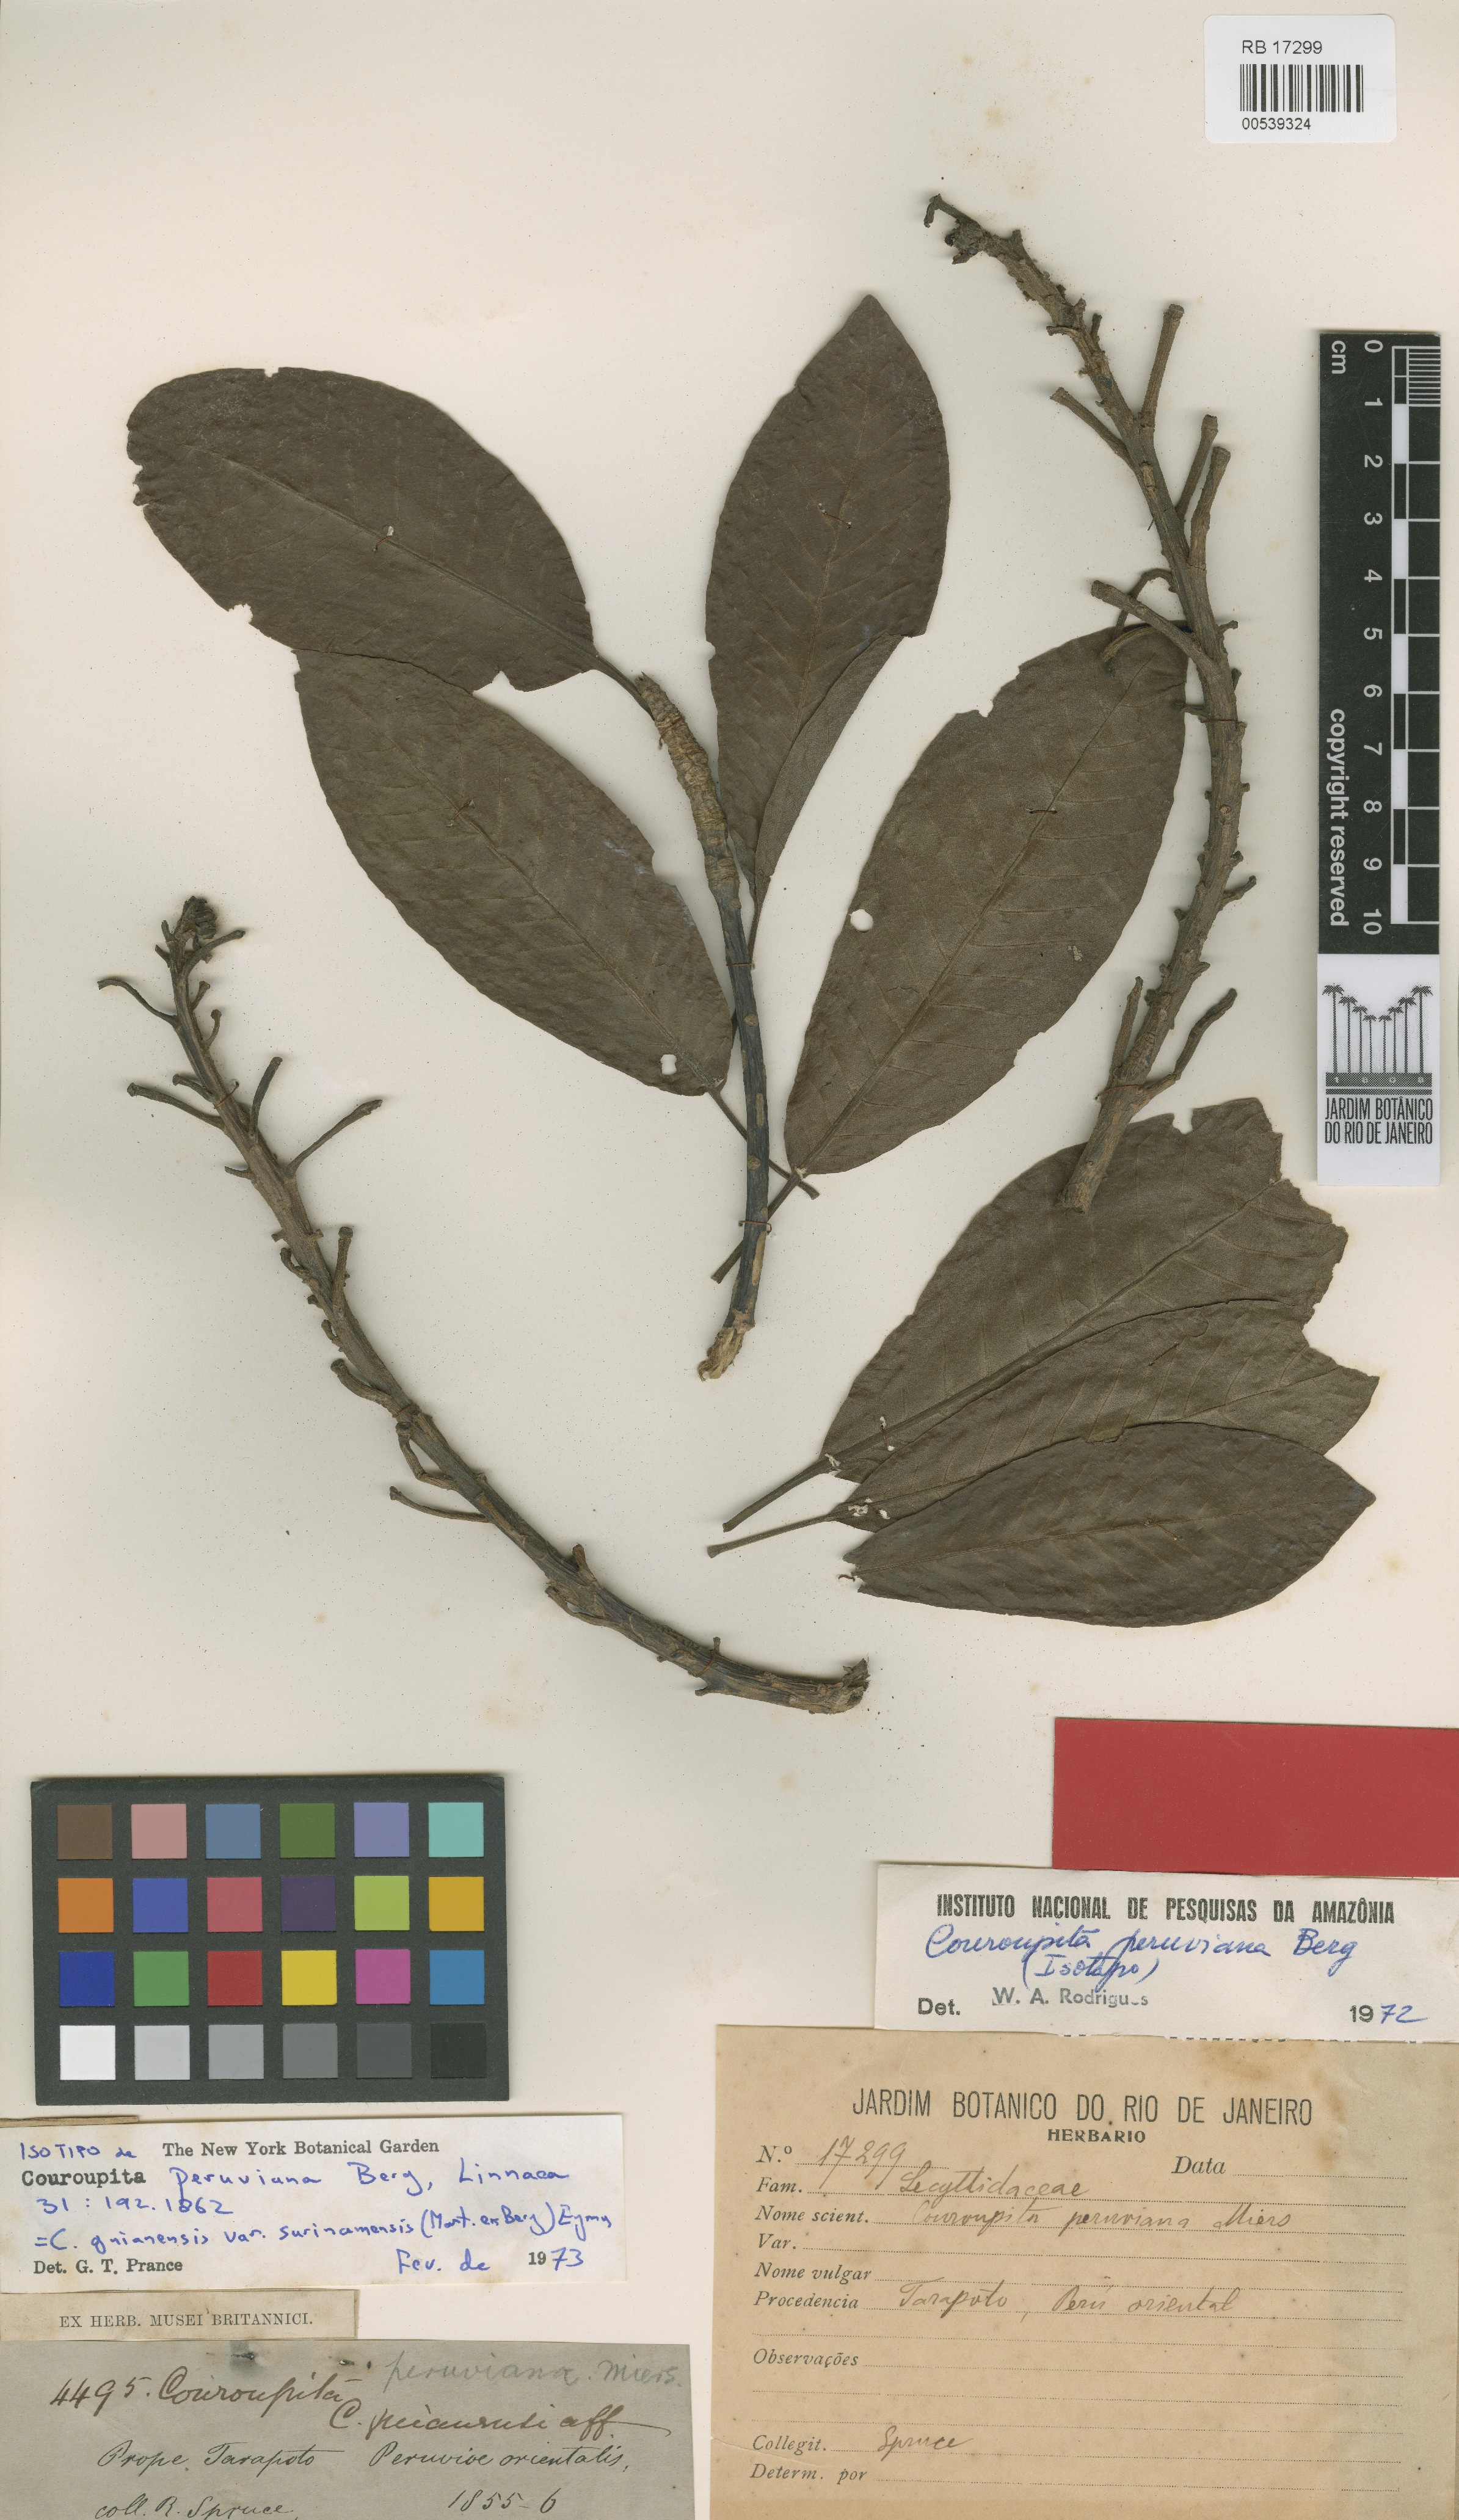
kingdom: Plantae
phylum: Tracheophyta
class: Magnoliopsida
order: Ericales
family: Lecythidaceae
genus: Couroupita
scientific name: Couroupita guianensis
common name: Cannonball tree
